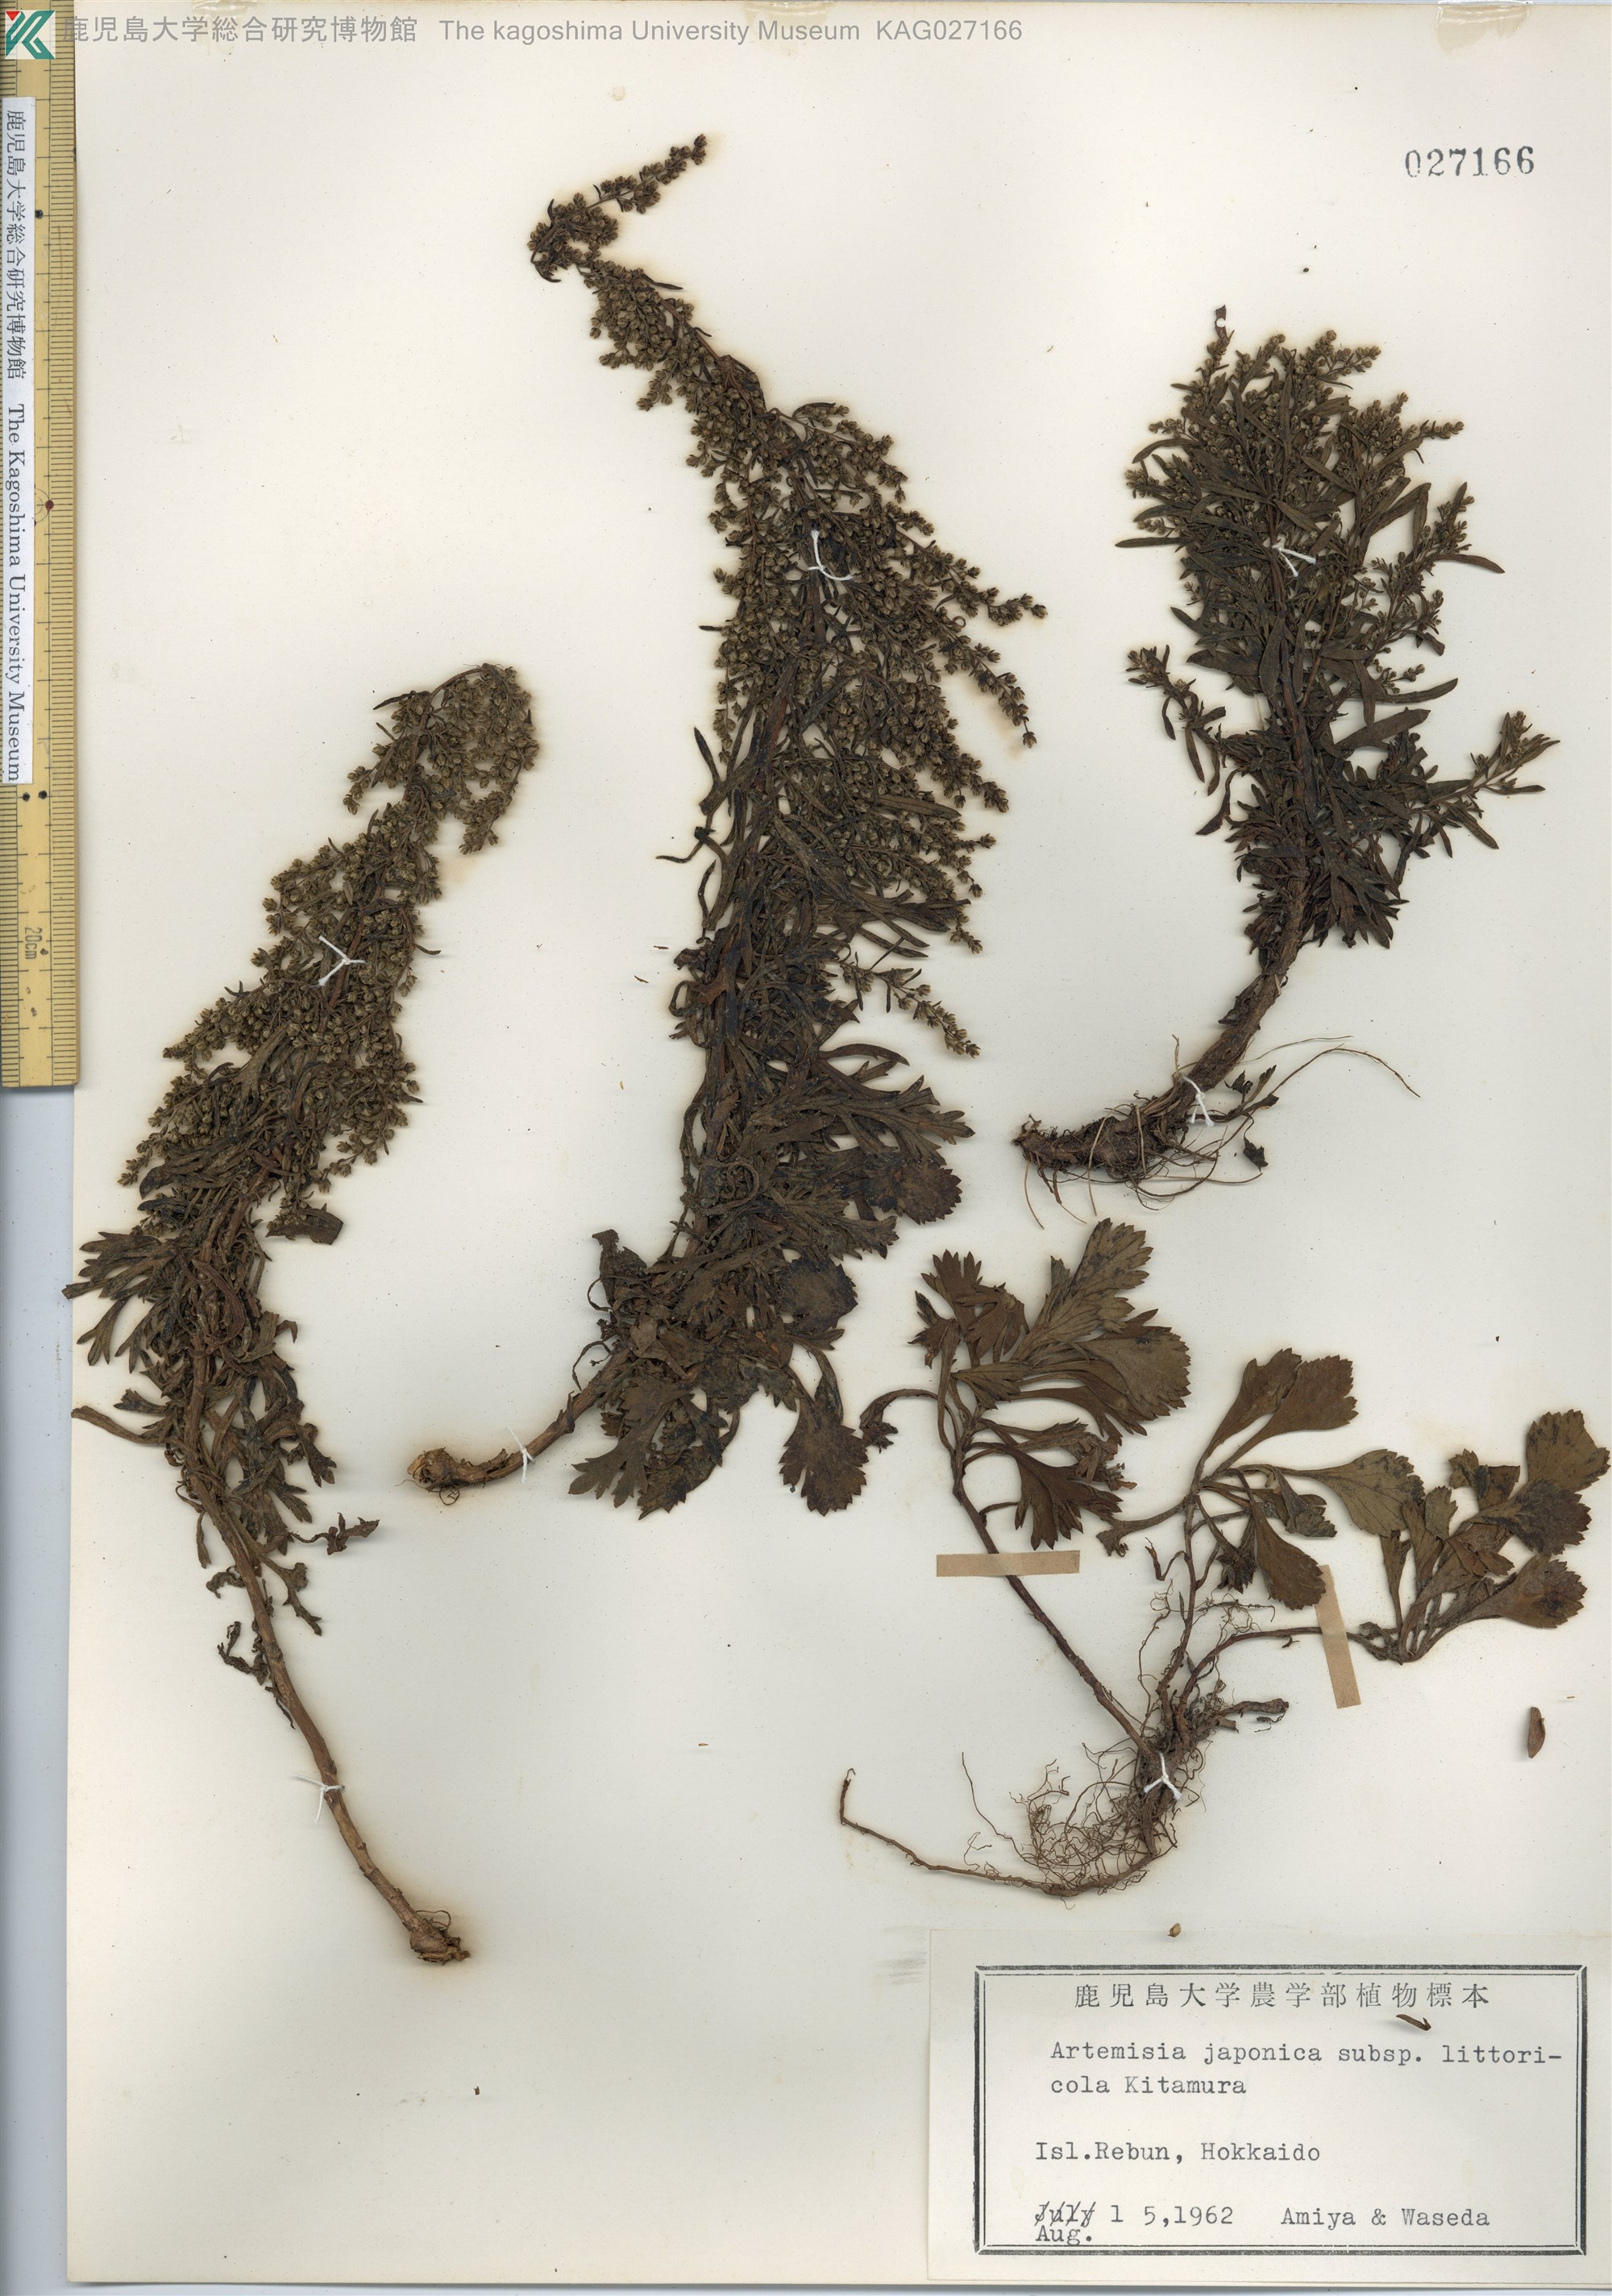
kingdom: Plantae
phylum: Tracheophyta
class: Magnoliopsida
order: Asterales
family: Asteraceae
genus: Artemisia
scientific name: Artemisia japonica
